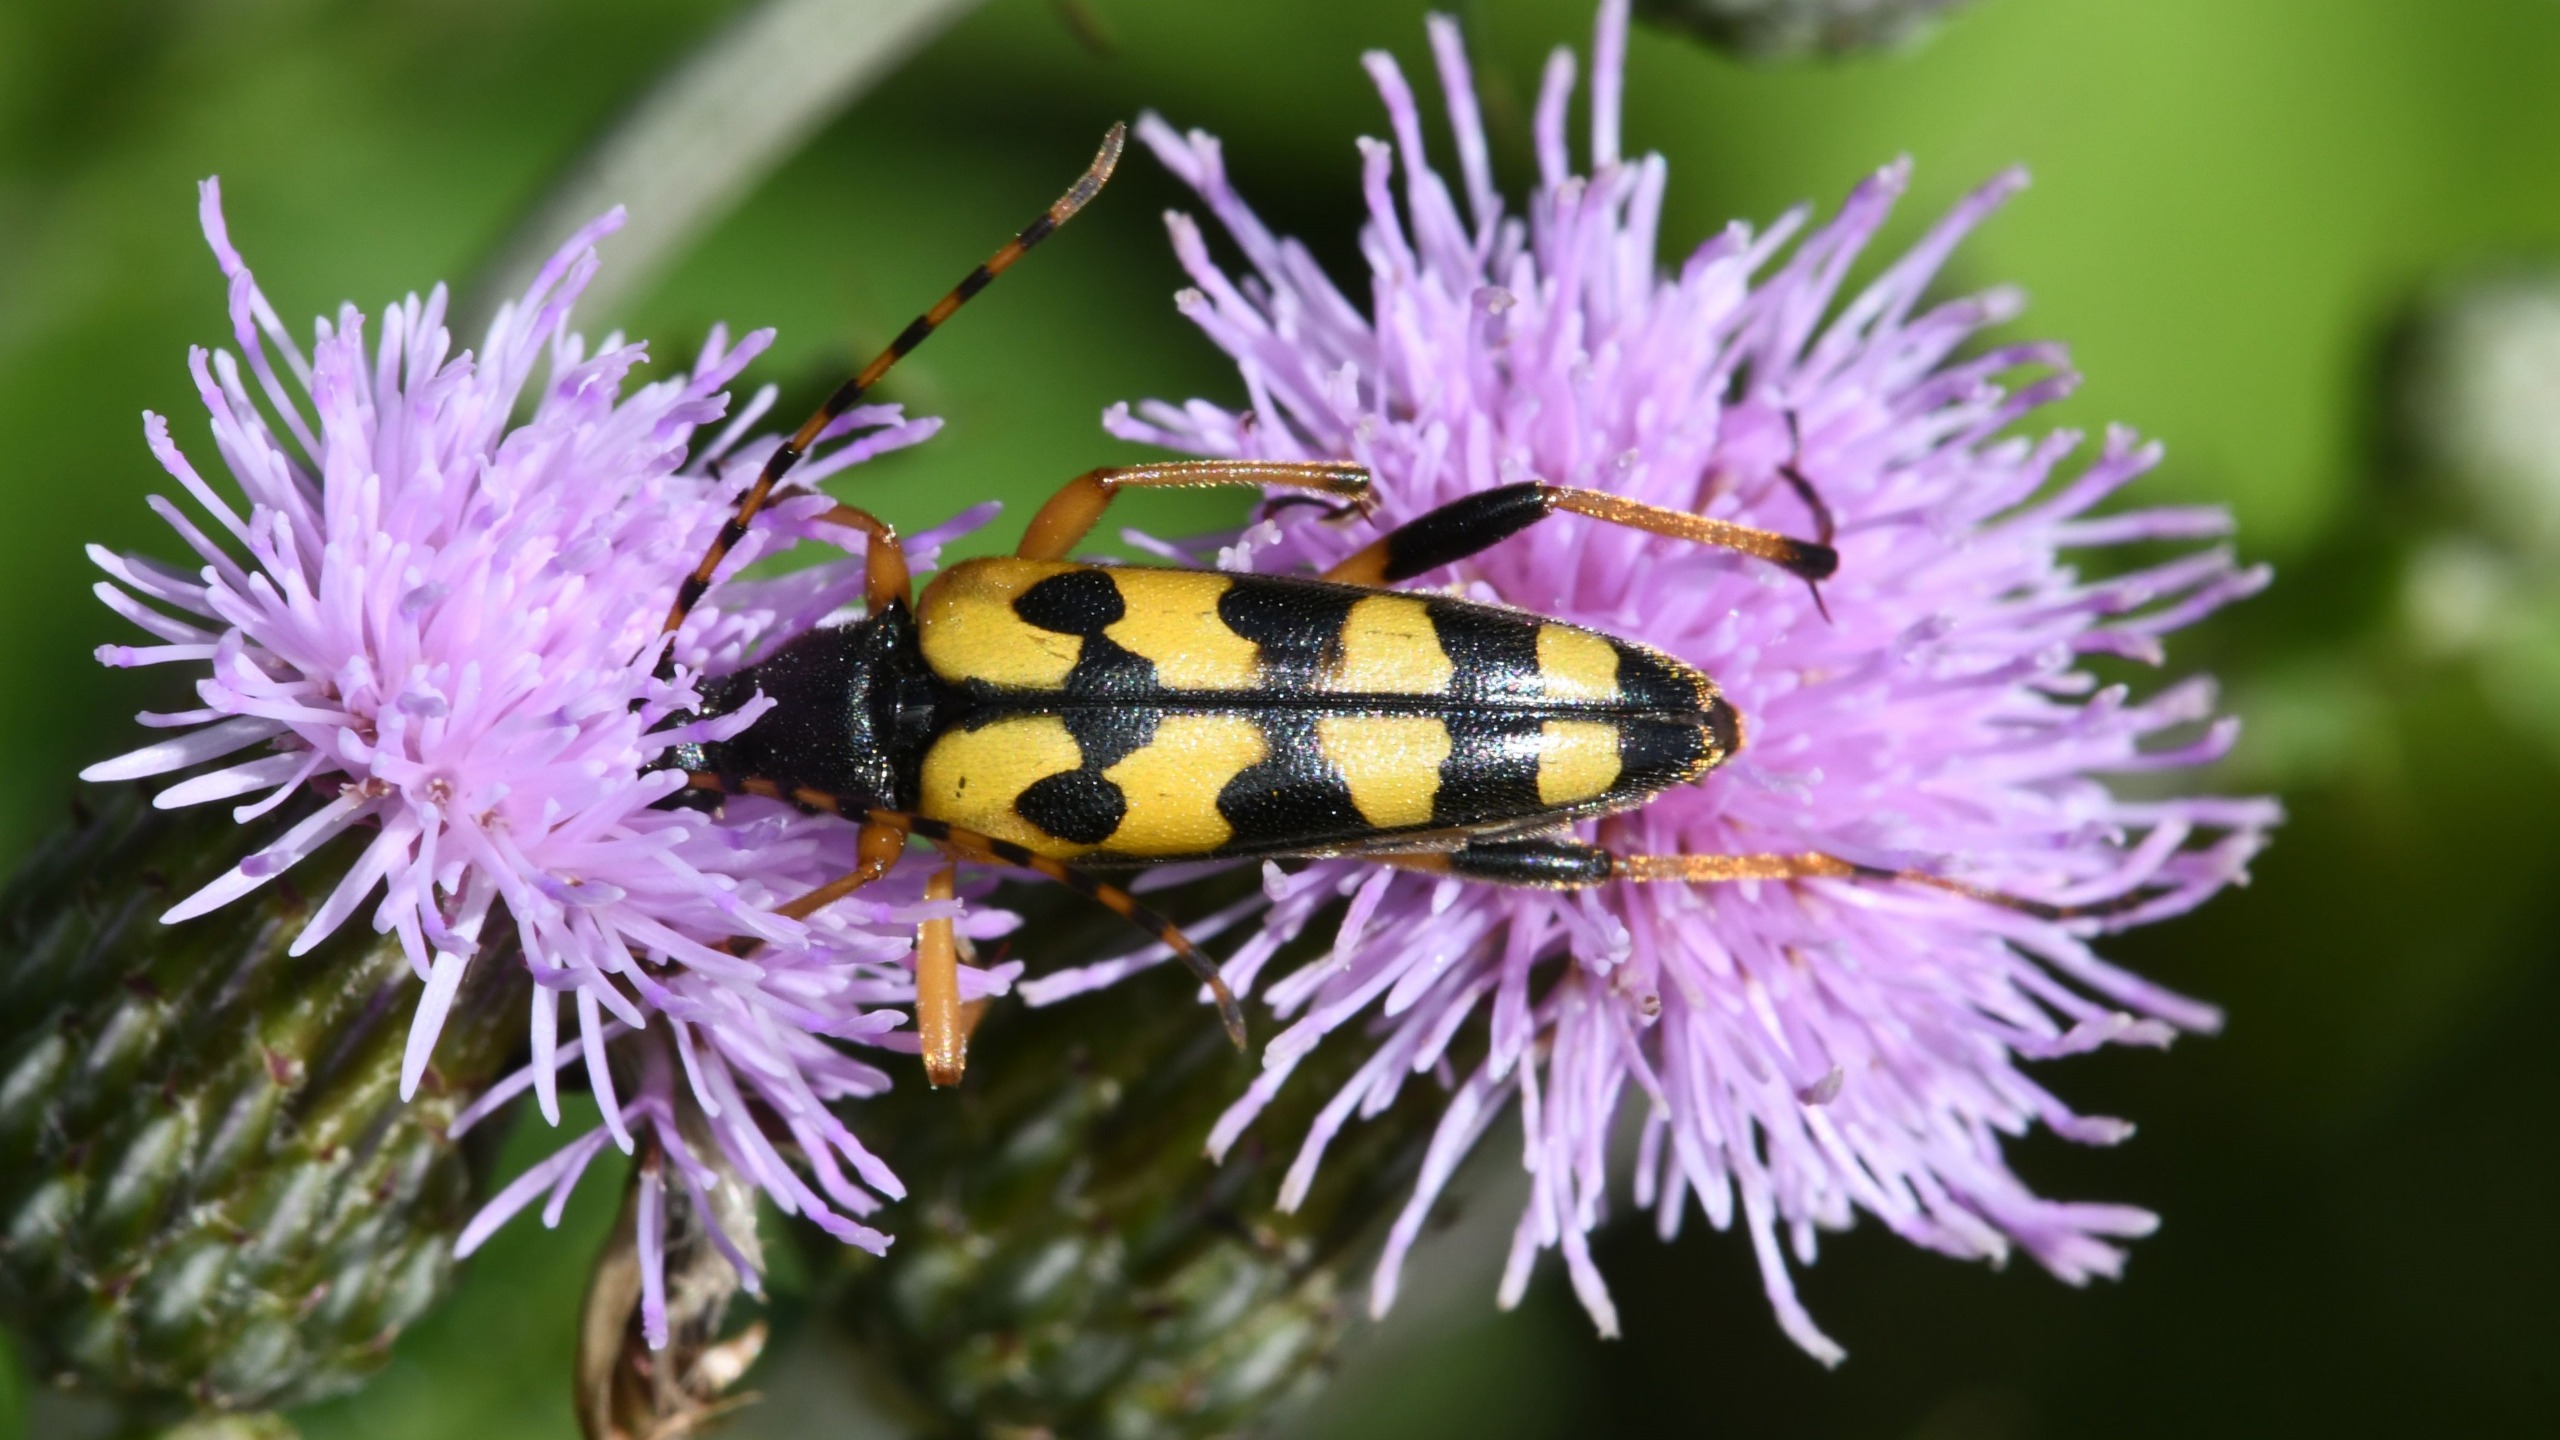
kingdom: Animalia
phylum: Arthropoda
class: Insecta
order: Coleoptera
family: Cerambycidae
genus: Rutpela
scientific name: Rutpela maculata
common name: Sydlig blomsterbuk
